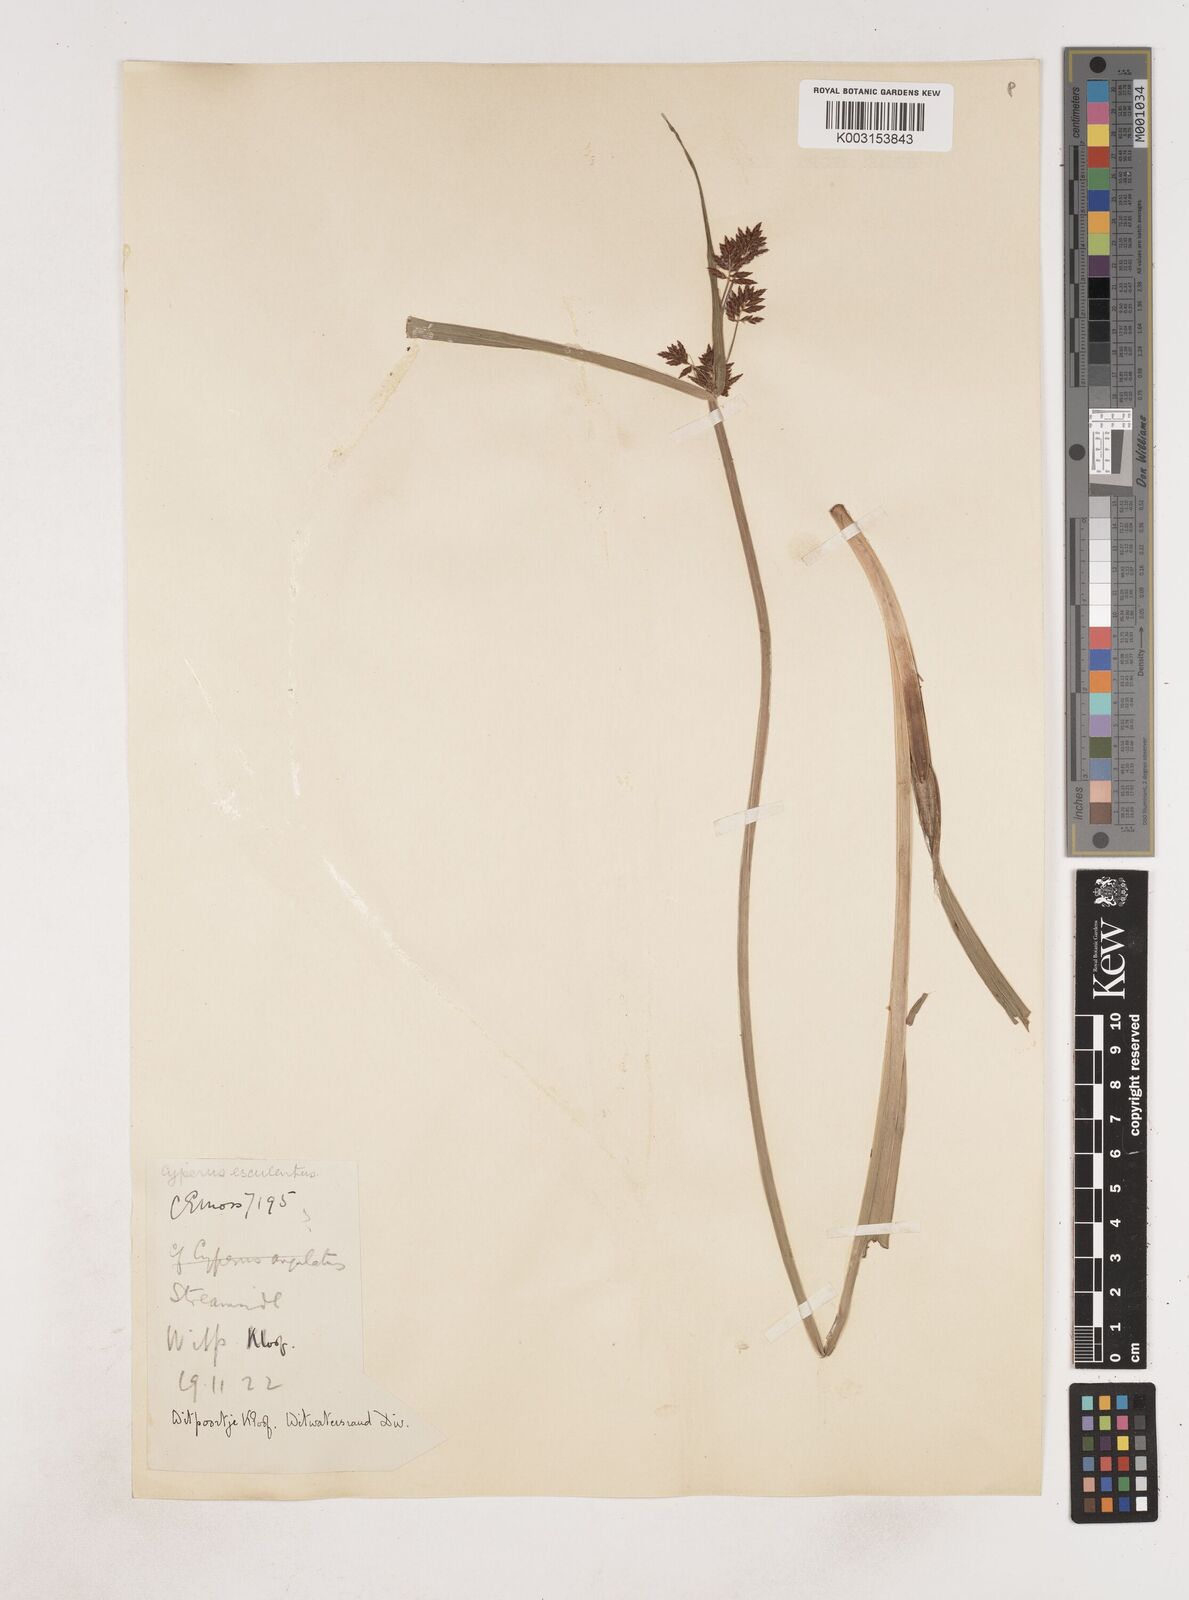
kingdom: Plantae
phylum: Tracheophyta
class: Liliopsida
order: Poales
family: Cyperaceae
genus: Cyperus
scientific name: Cyperus
